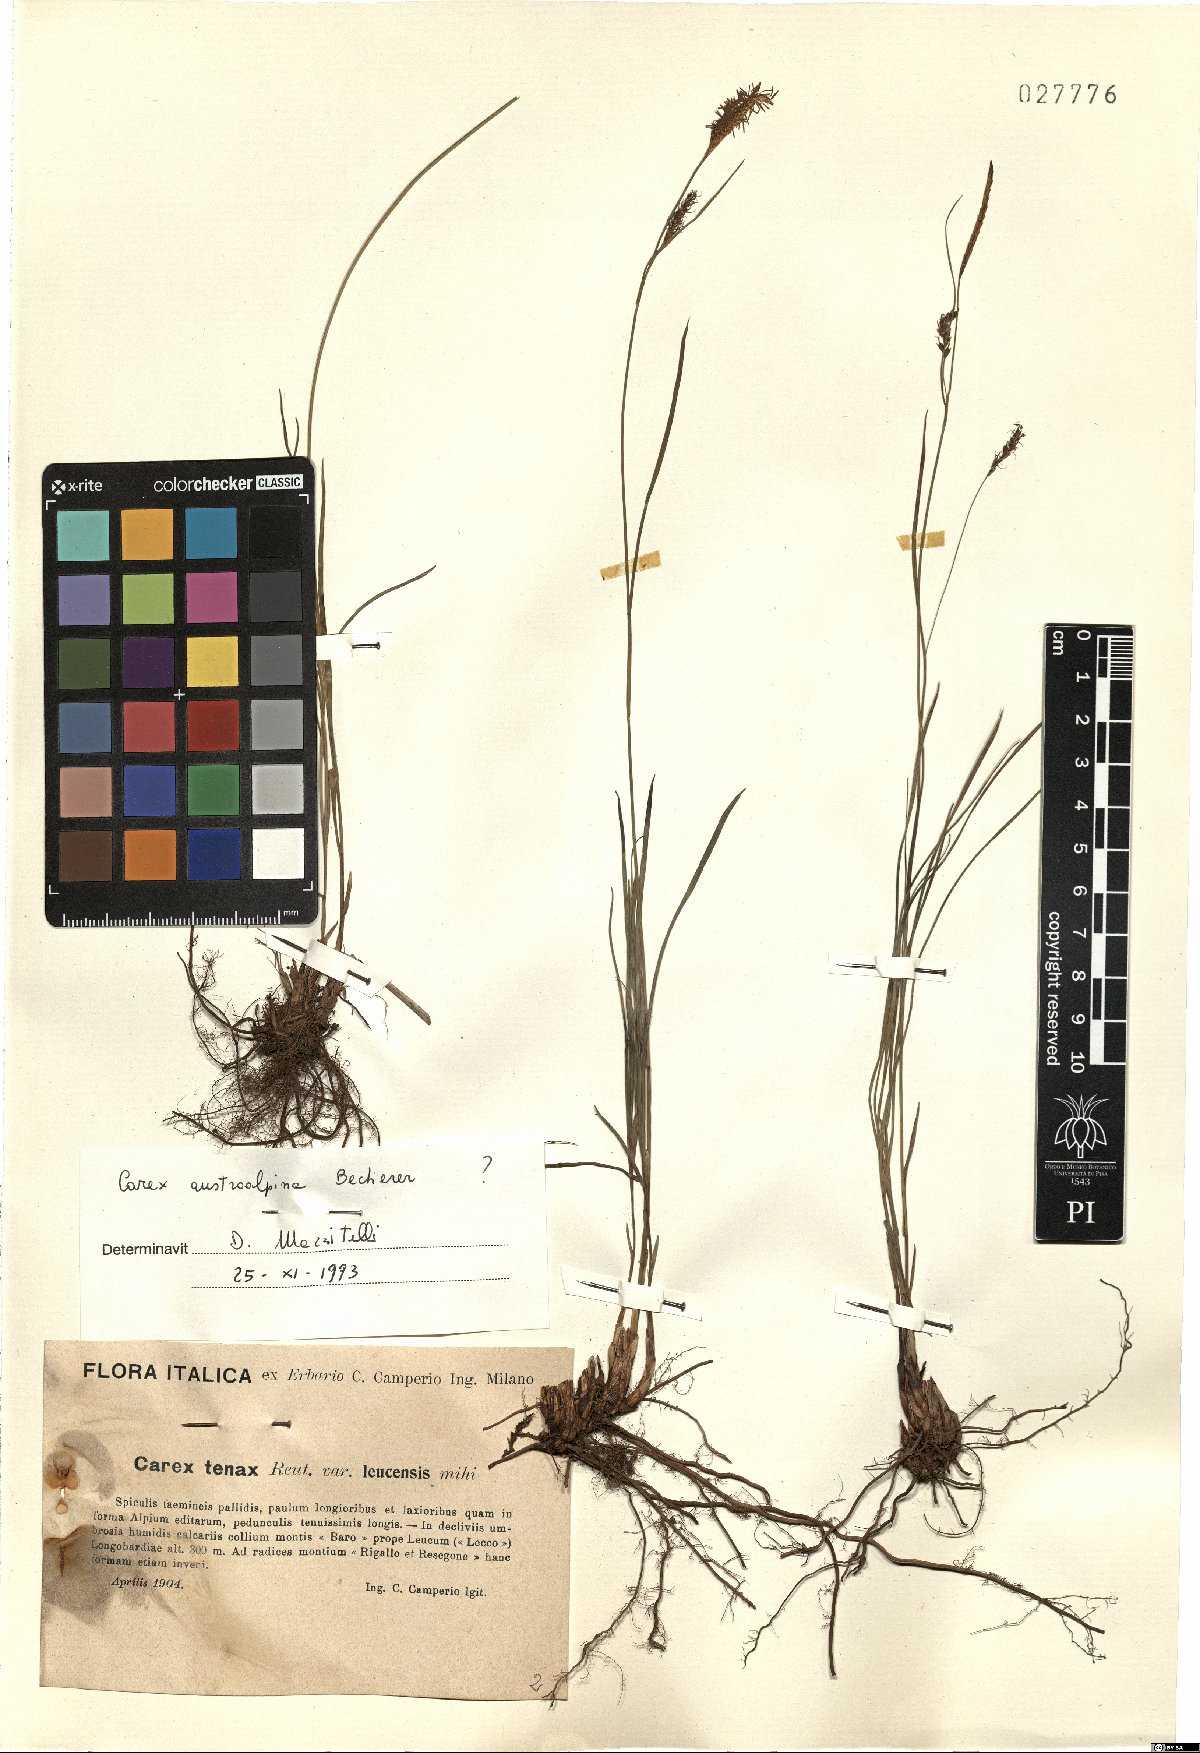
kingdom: Plantae
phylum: Tracheophyta
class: Liliopsida
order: Poales
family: Cyperaceae
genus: Carex
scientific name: Carex austroalpina
